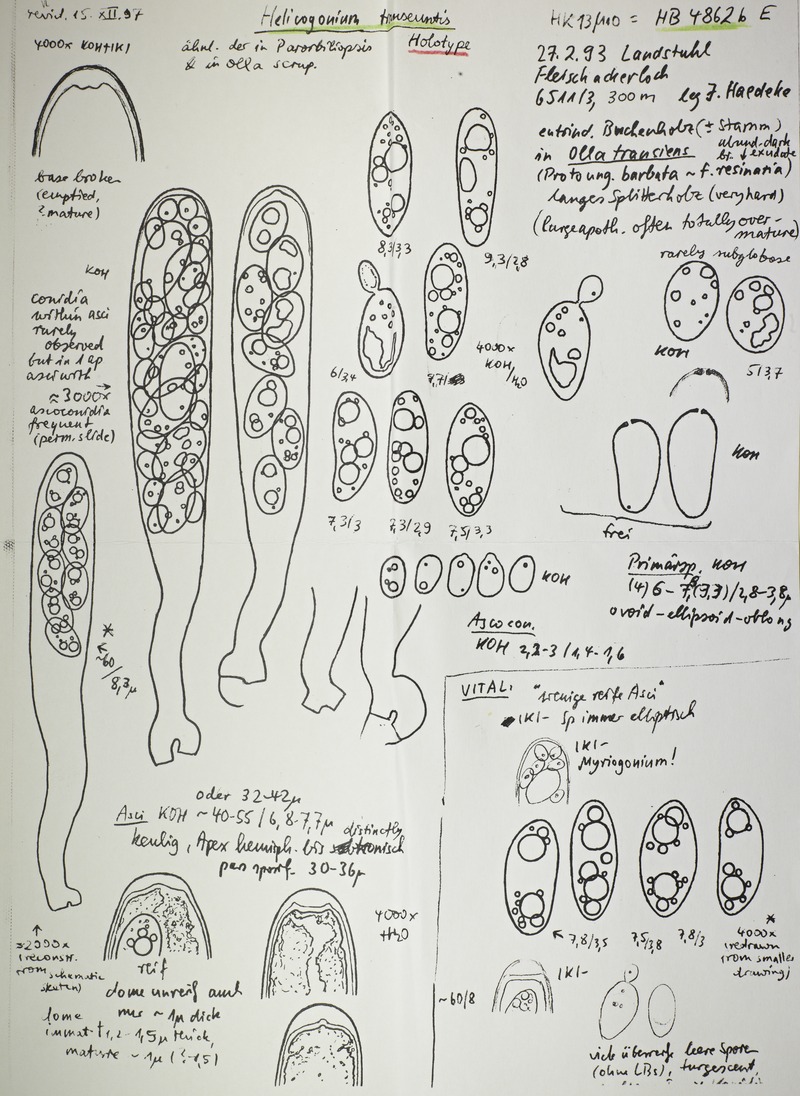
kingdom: Fungi
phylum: Ascomycota
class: Leotiomycetes
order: Phacidiales
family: Helicogoniaceae
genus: Helicogonium
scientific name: Helicogonium transeuntis
